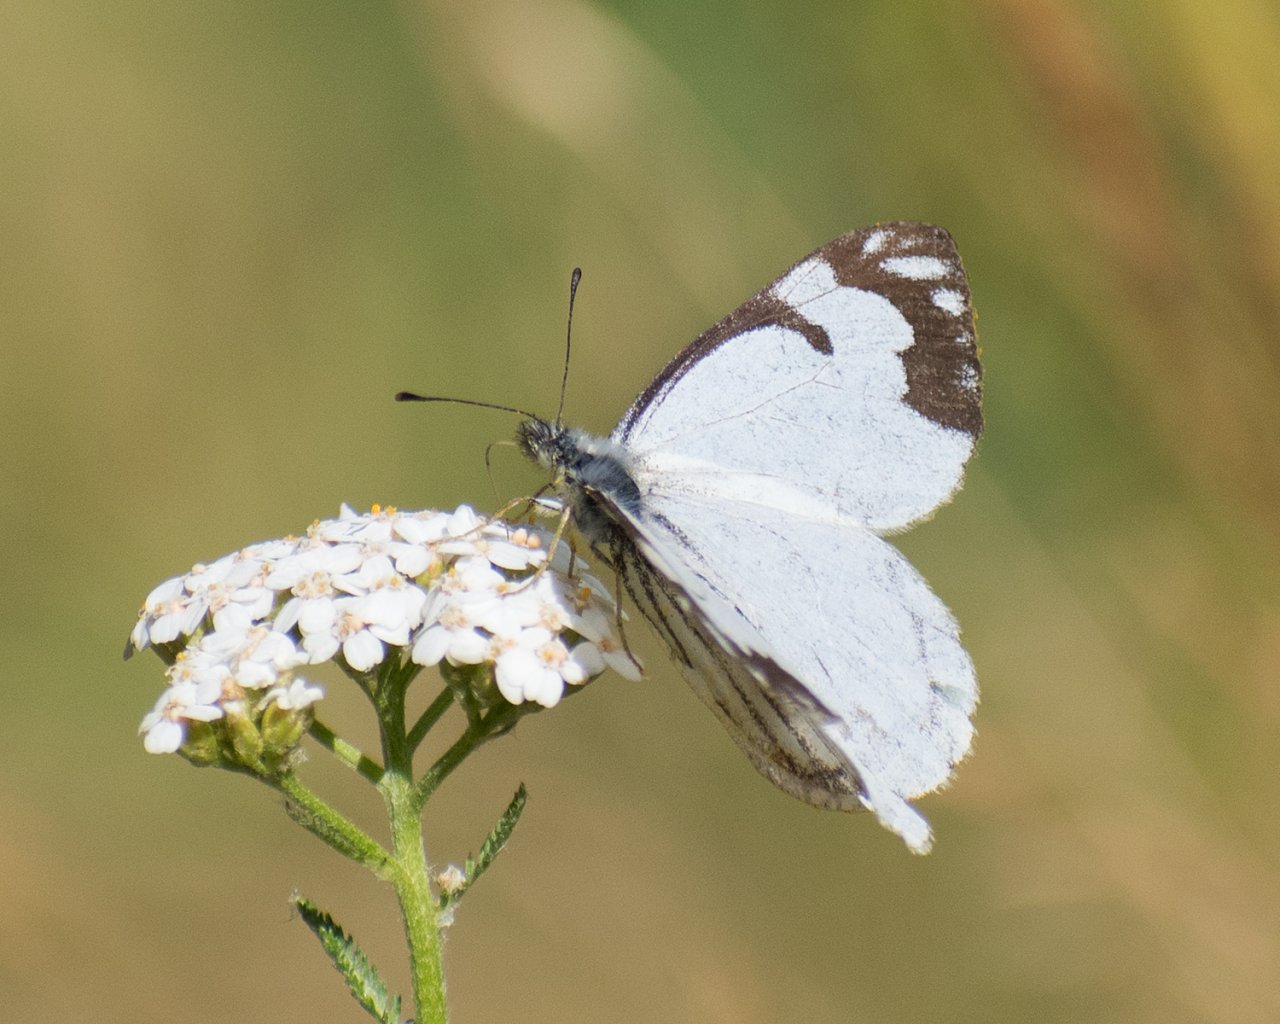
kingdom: Animalia
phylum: Arthropoda
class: Insecta
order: Lepidoptera
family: Pieridae
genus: Neophasia
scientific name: Neophasia menapia
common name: Pine White
